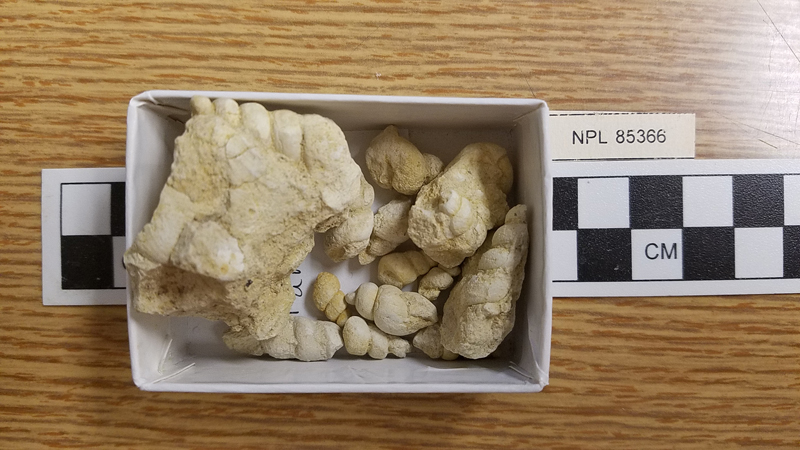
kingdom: Animalia
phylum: Mollusca
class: Gastropoda
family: Turritellidae
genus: Turritella
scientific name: Turritella
